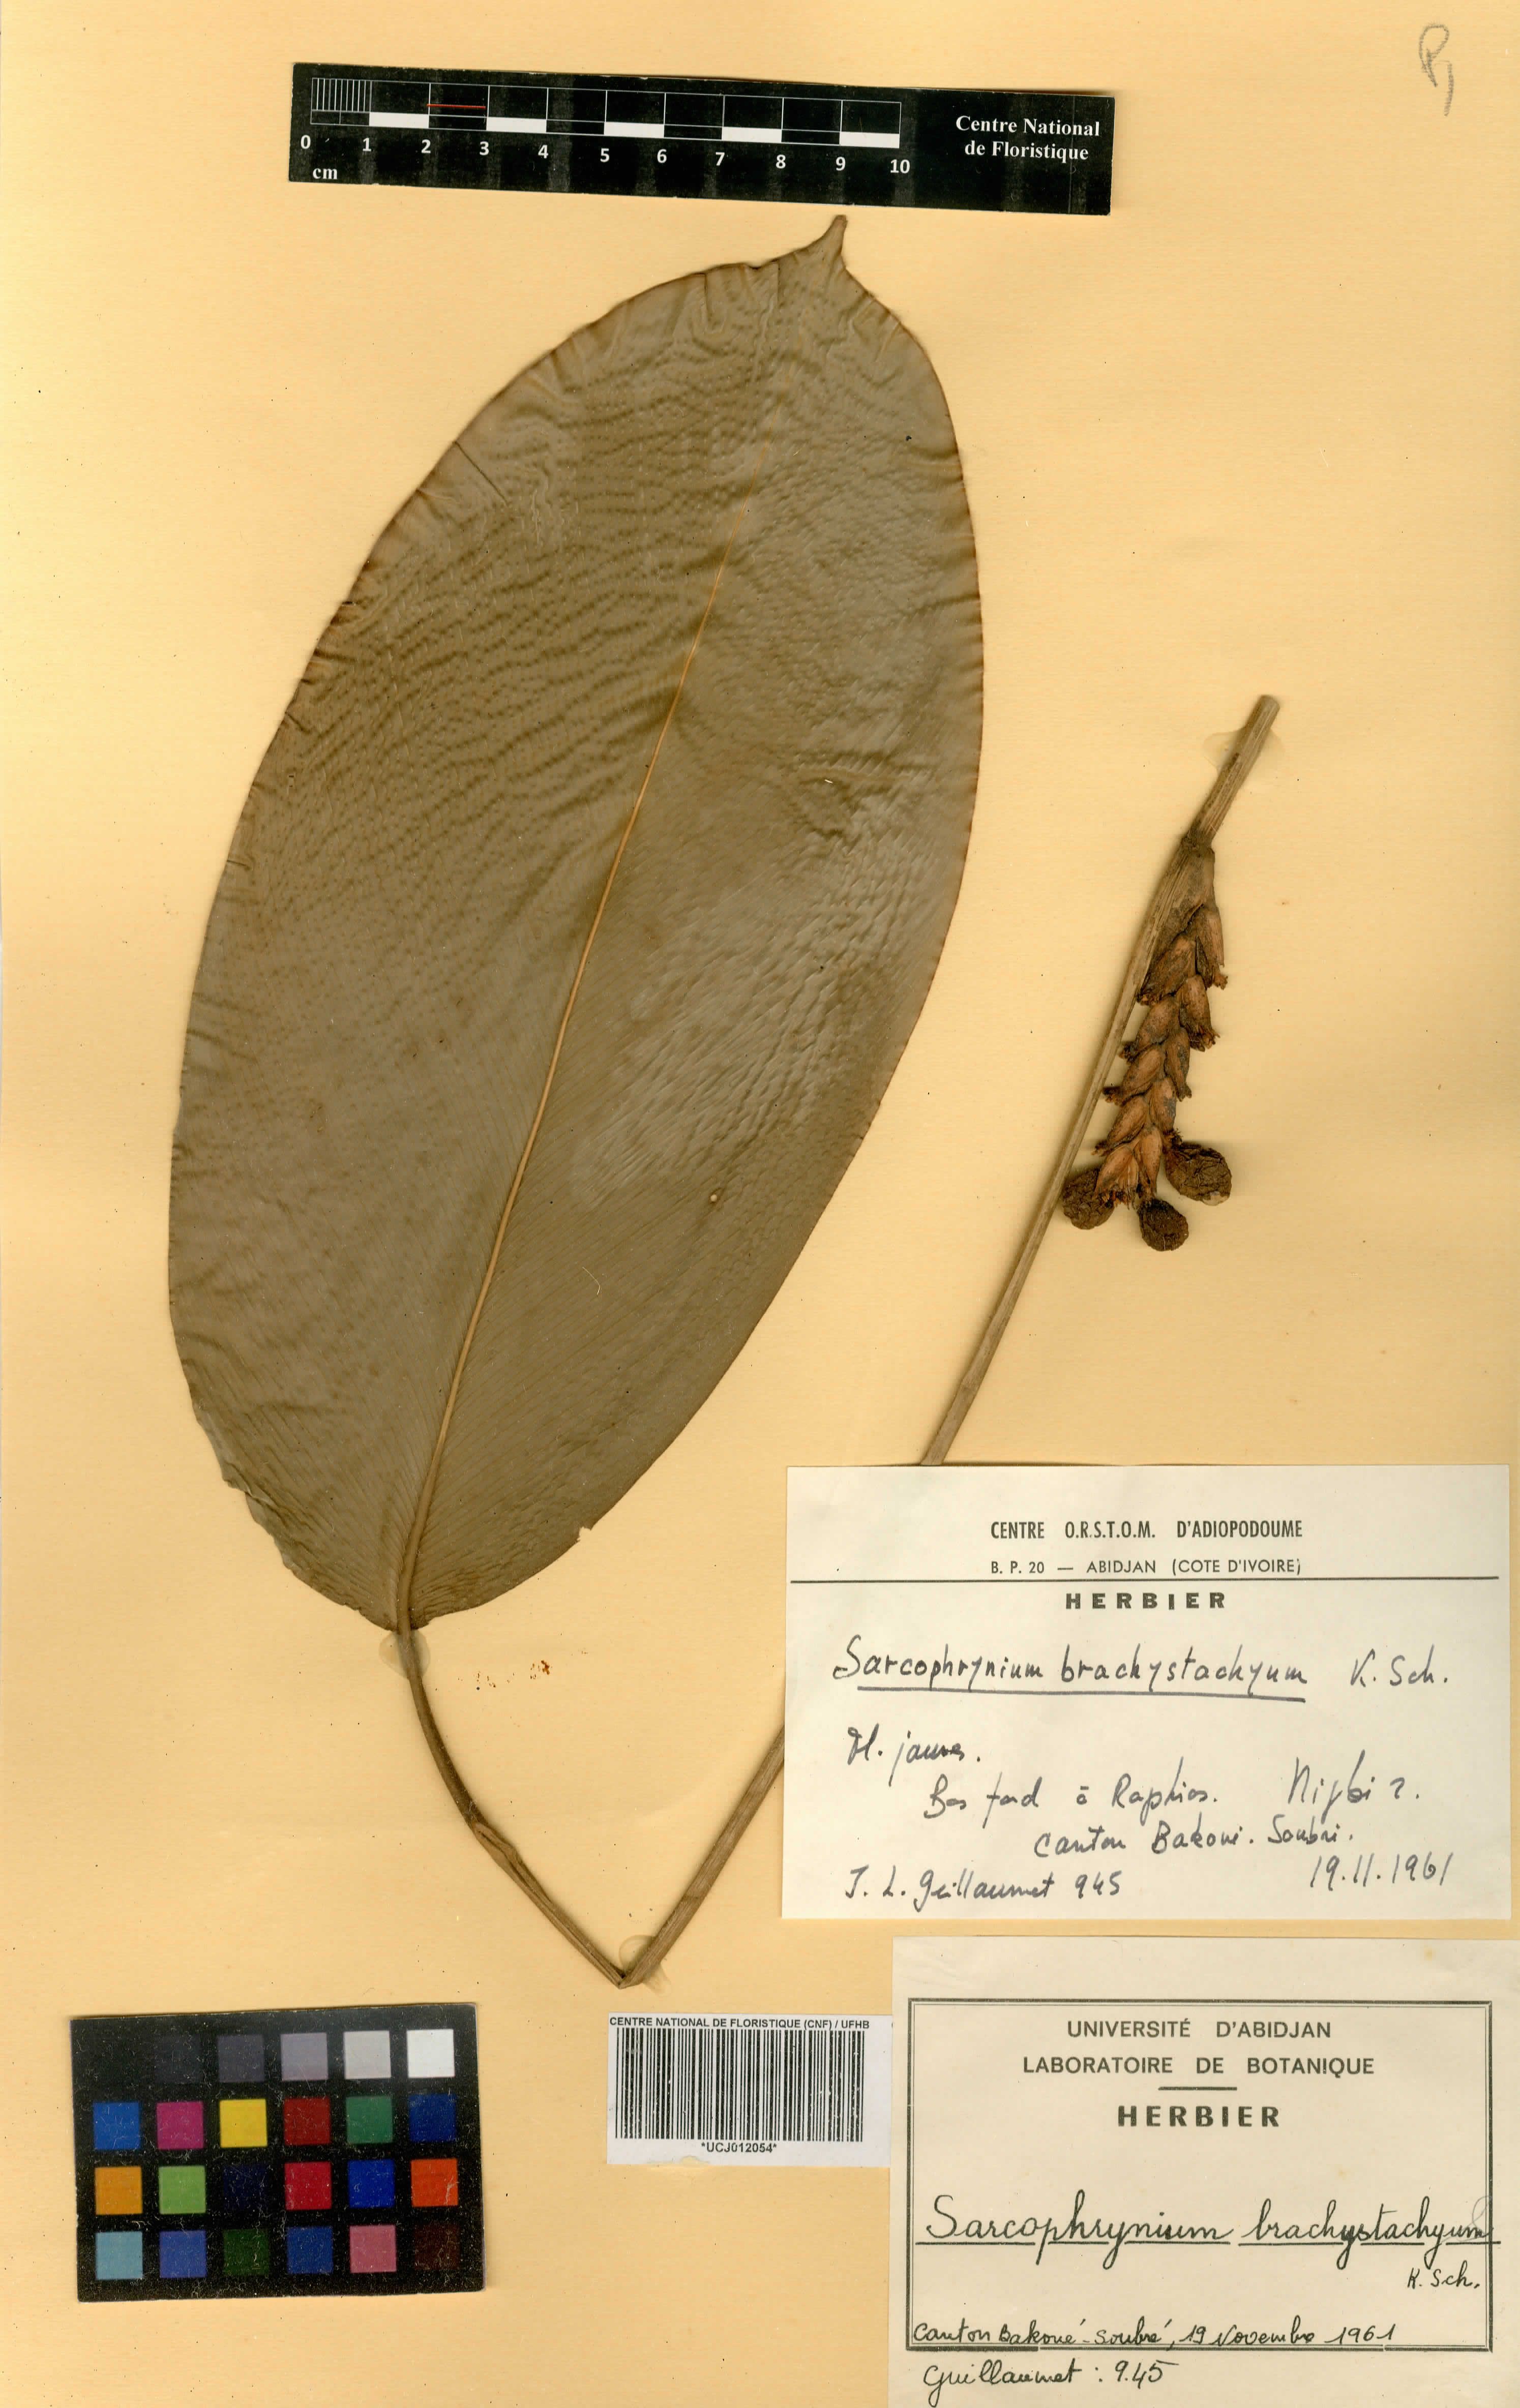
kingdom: Plantae
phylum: Tracheophyta
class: Liliopsida
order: Zingiberales
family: Marantaceae
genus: Sarcophrynium
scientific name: Sarcophrynium brachystachyum
